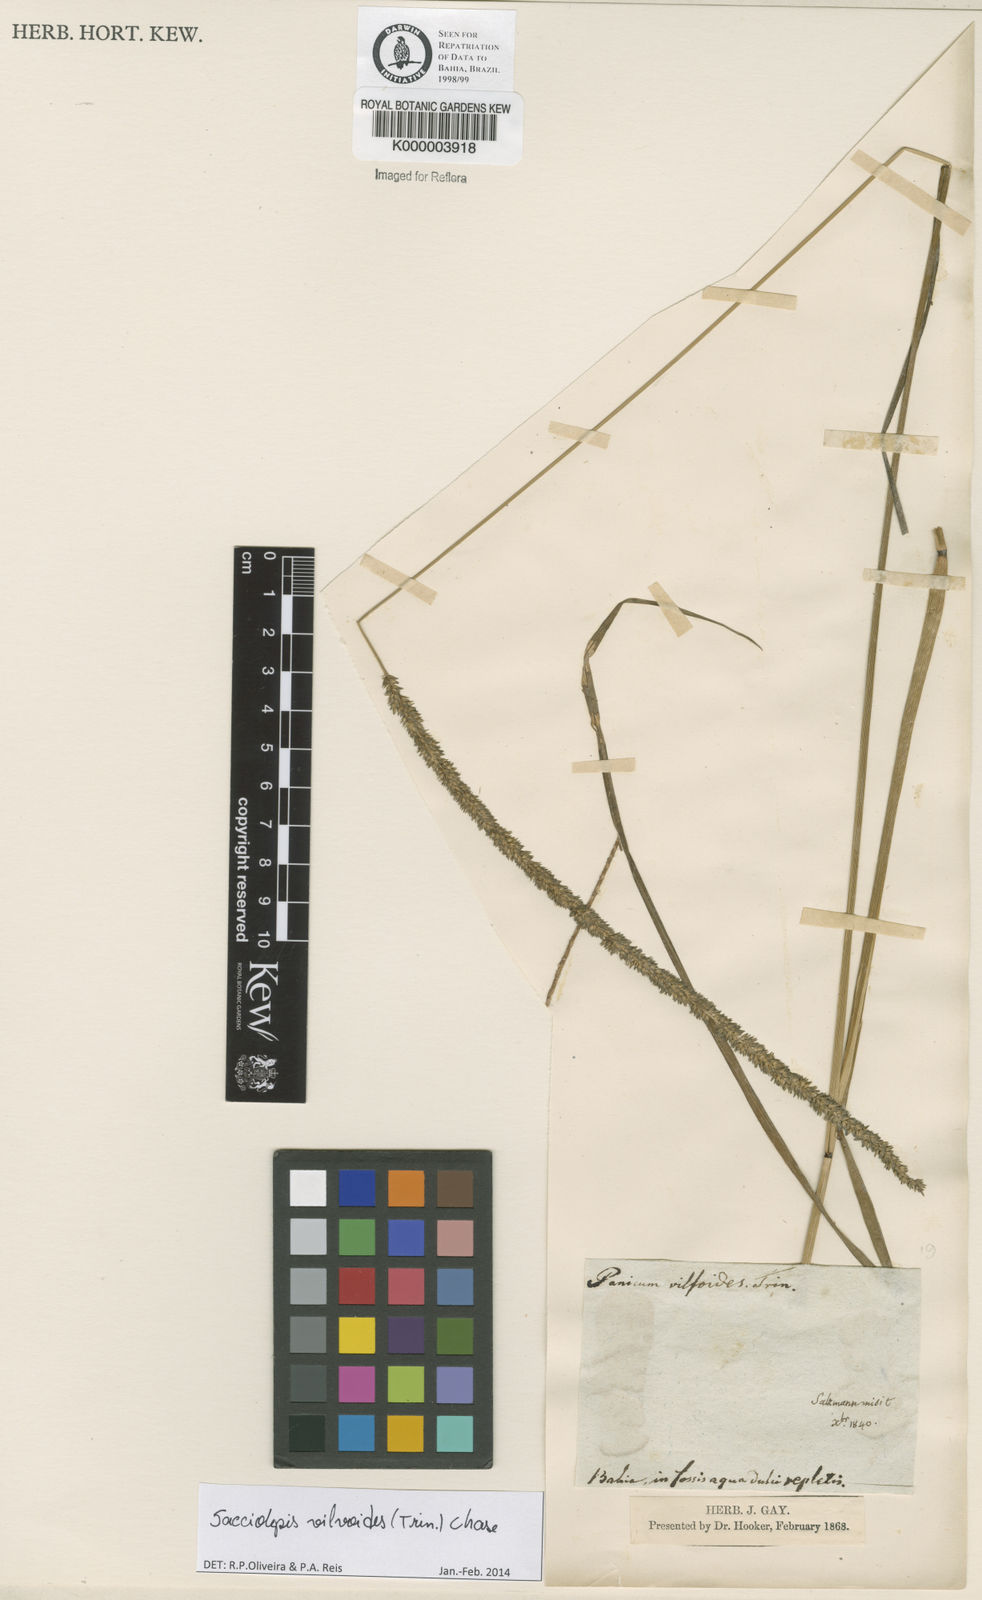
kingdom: Plantae
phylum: Tracheophyta
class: Liliopsida
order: Poales
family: Poaceae
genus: Sacciolepis
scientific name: Sacciolepis vilvoides
